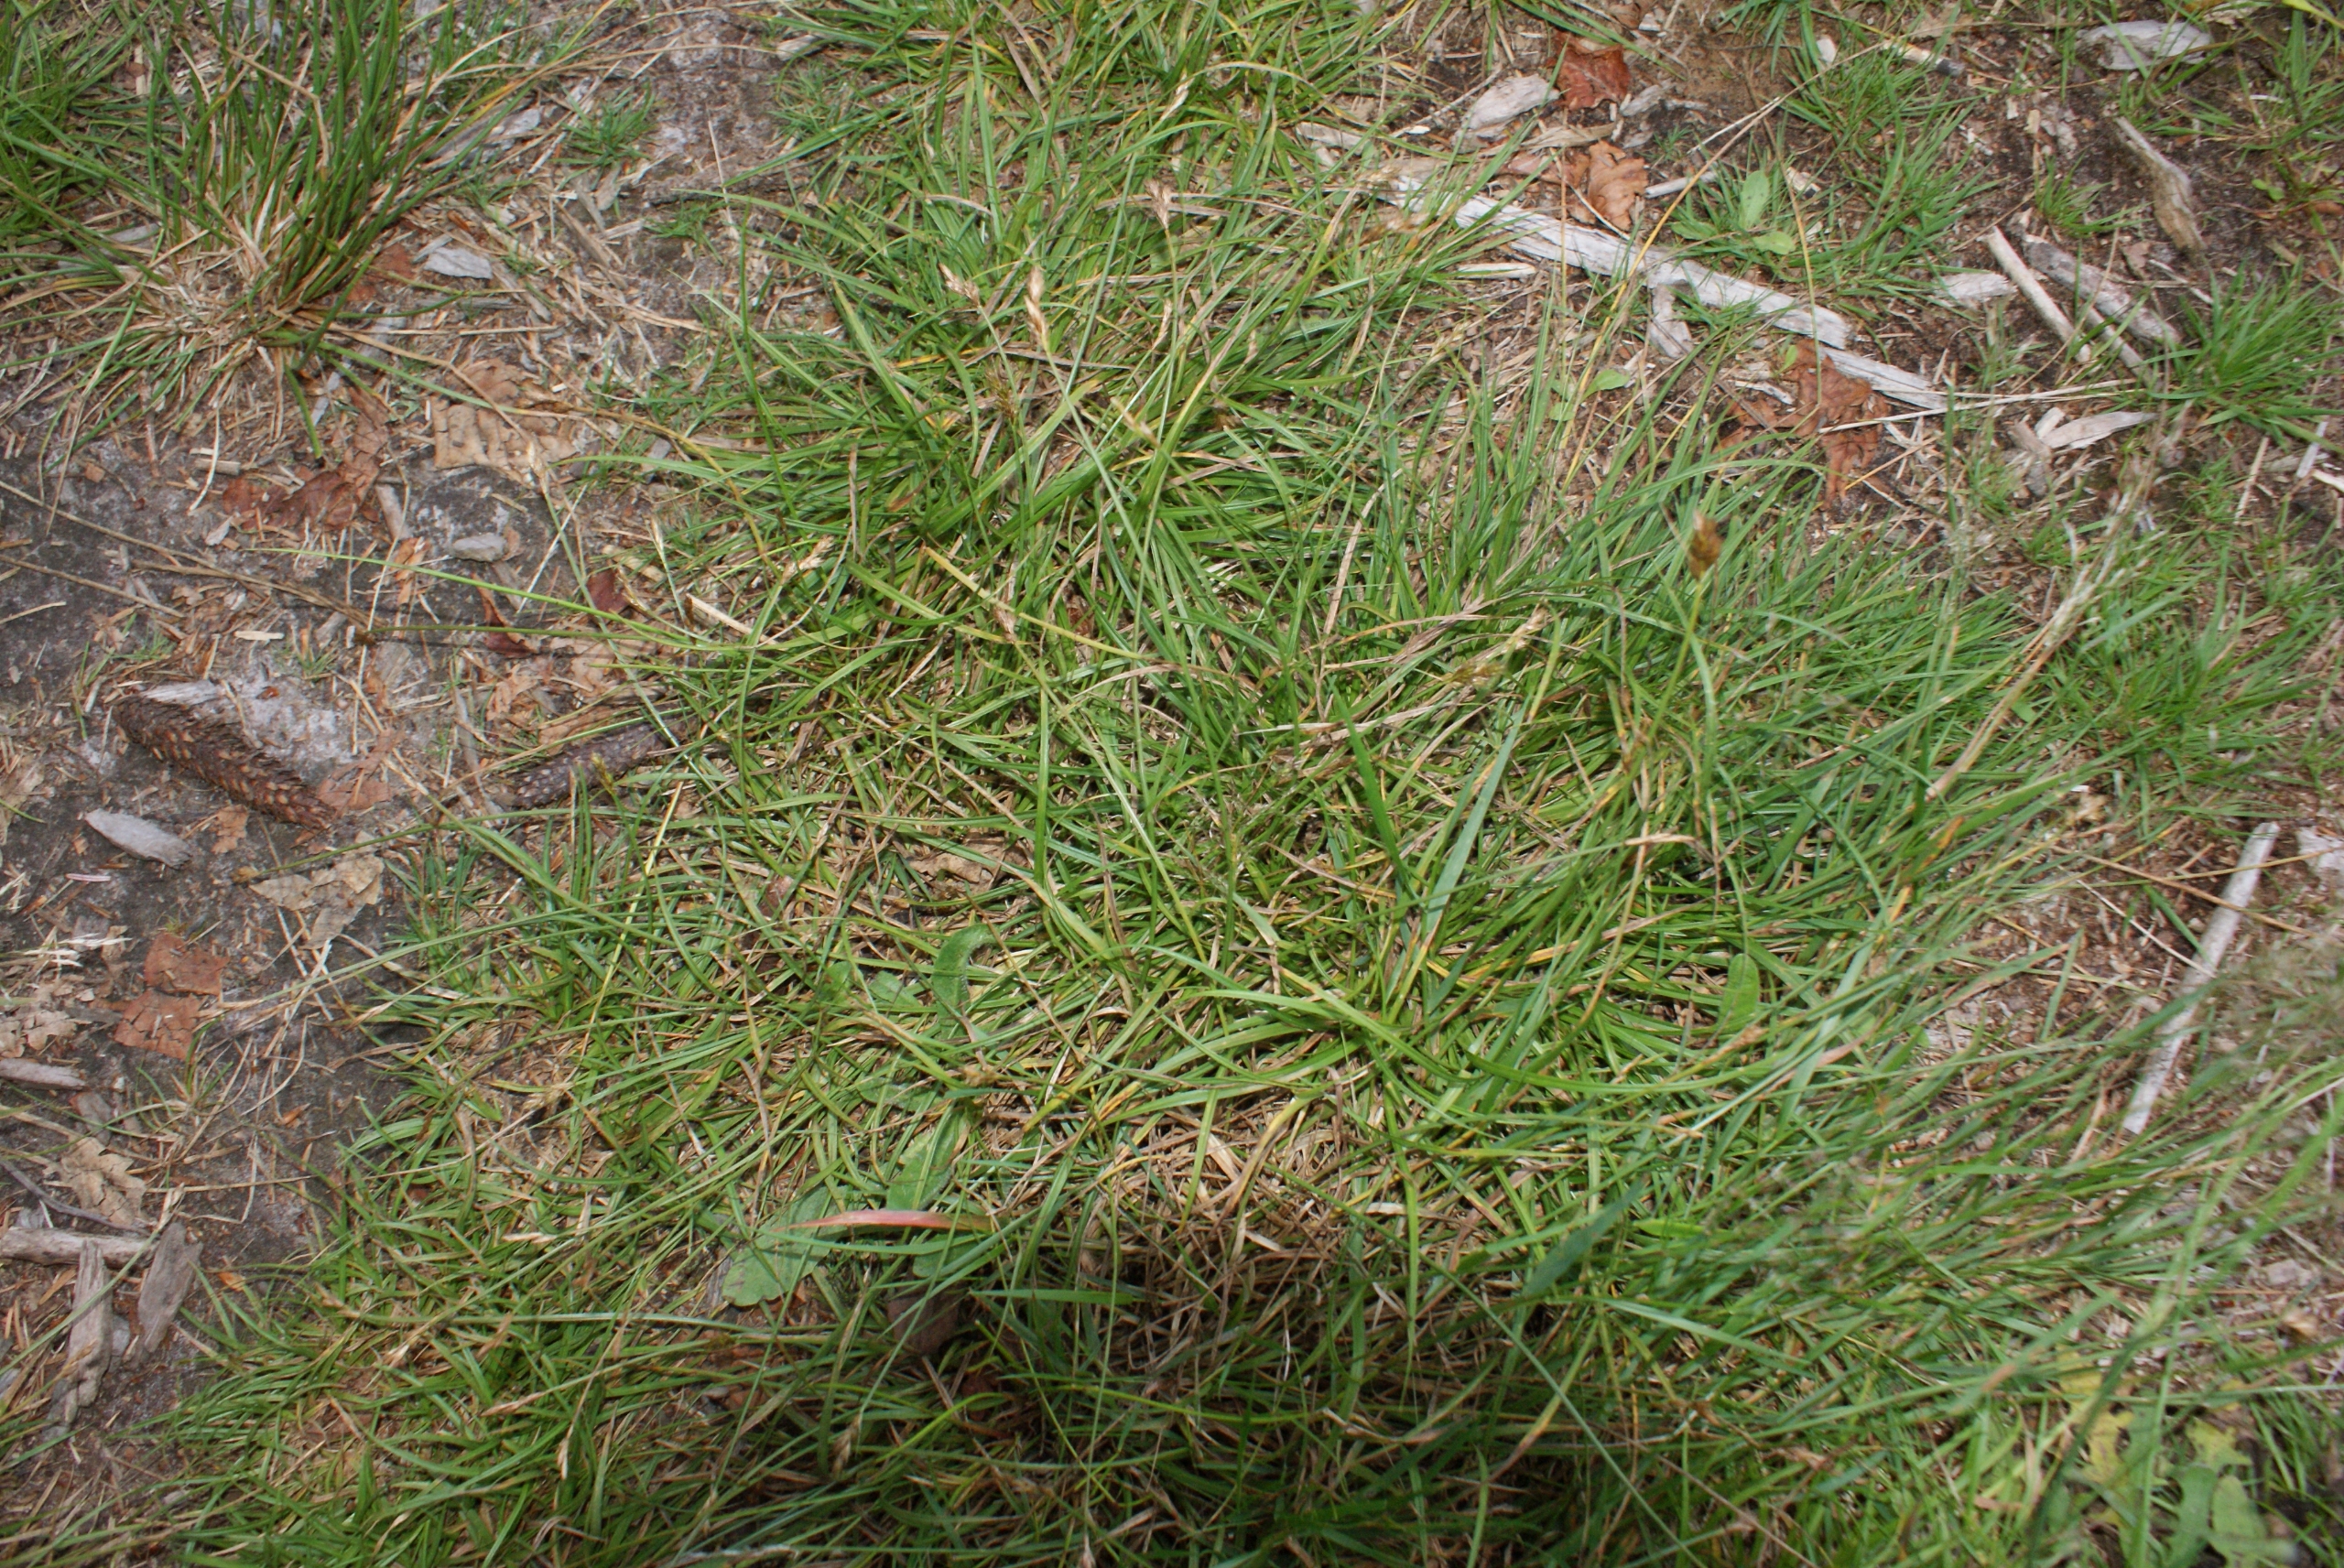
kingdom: Plantae
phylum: Tracheophyta
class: Liliopsida
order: Poales
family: Cyperaceae
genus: Carex
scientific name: Carex leporina
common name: Hare-star
